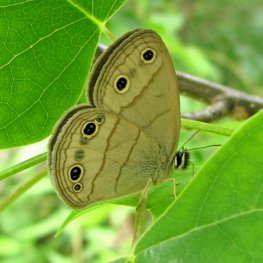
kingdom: Animalia
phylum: Arthropoda
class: Insecta
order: Lepidoptera
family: Nymphalidae
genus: Euptychia
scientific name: Euptychia cymela
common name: Little Wood Satyr
